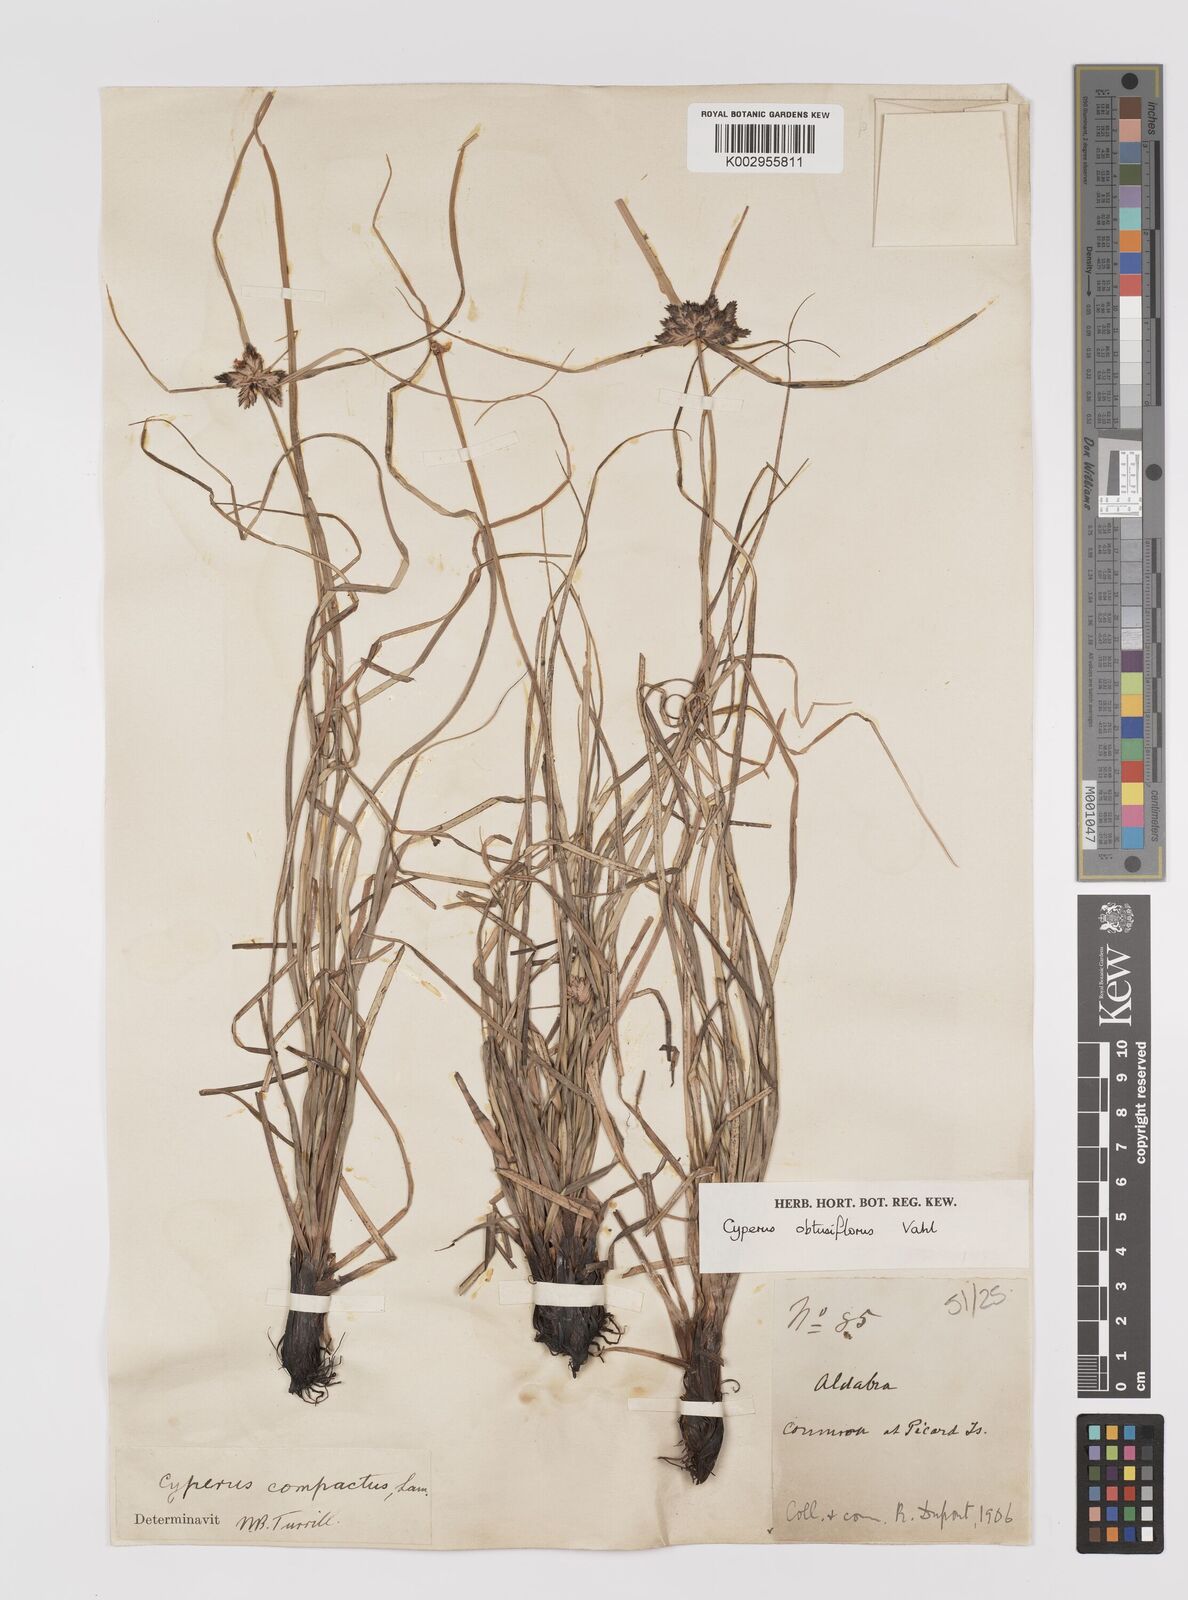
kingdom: Plantae
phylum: Tracheophyta
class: Liliopsida
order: Poales
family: Cyperaceae
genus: Cyperus
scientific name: Cyperus niveus
